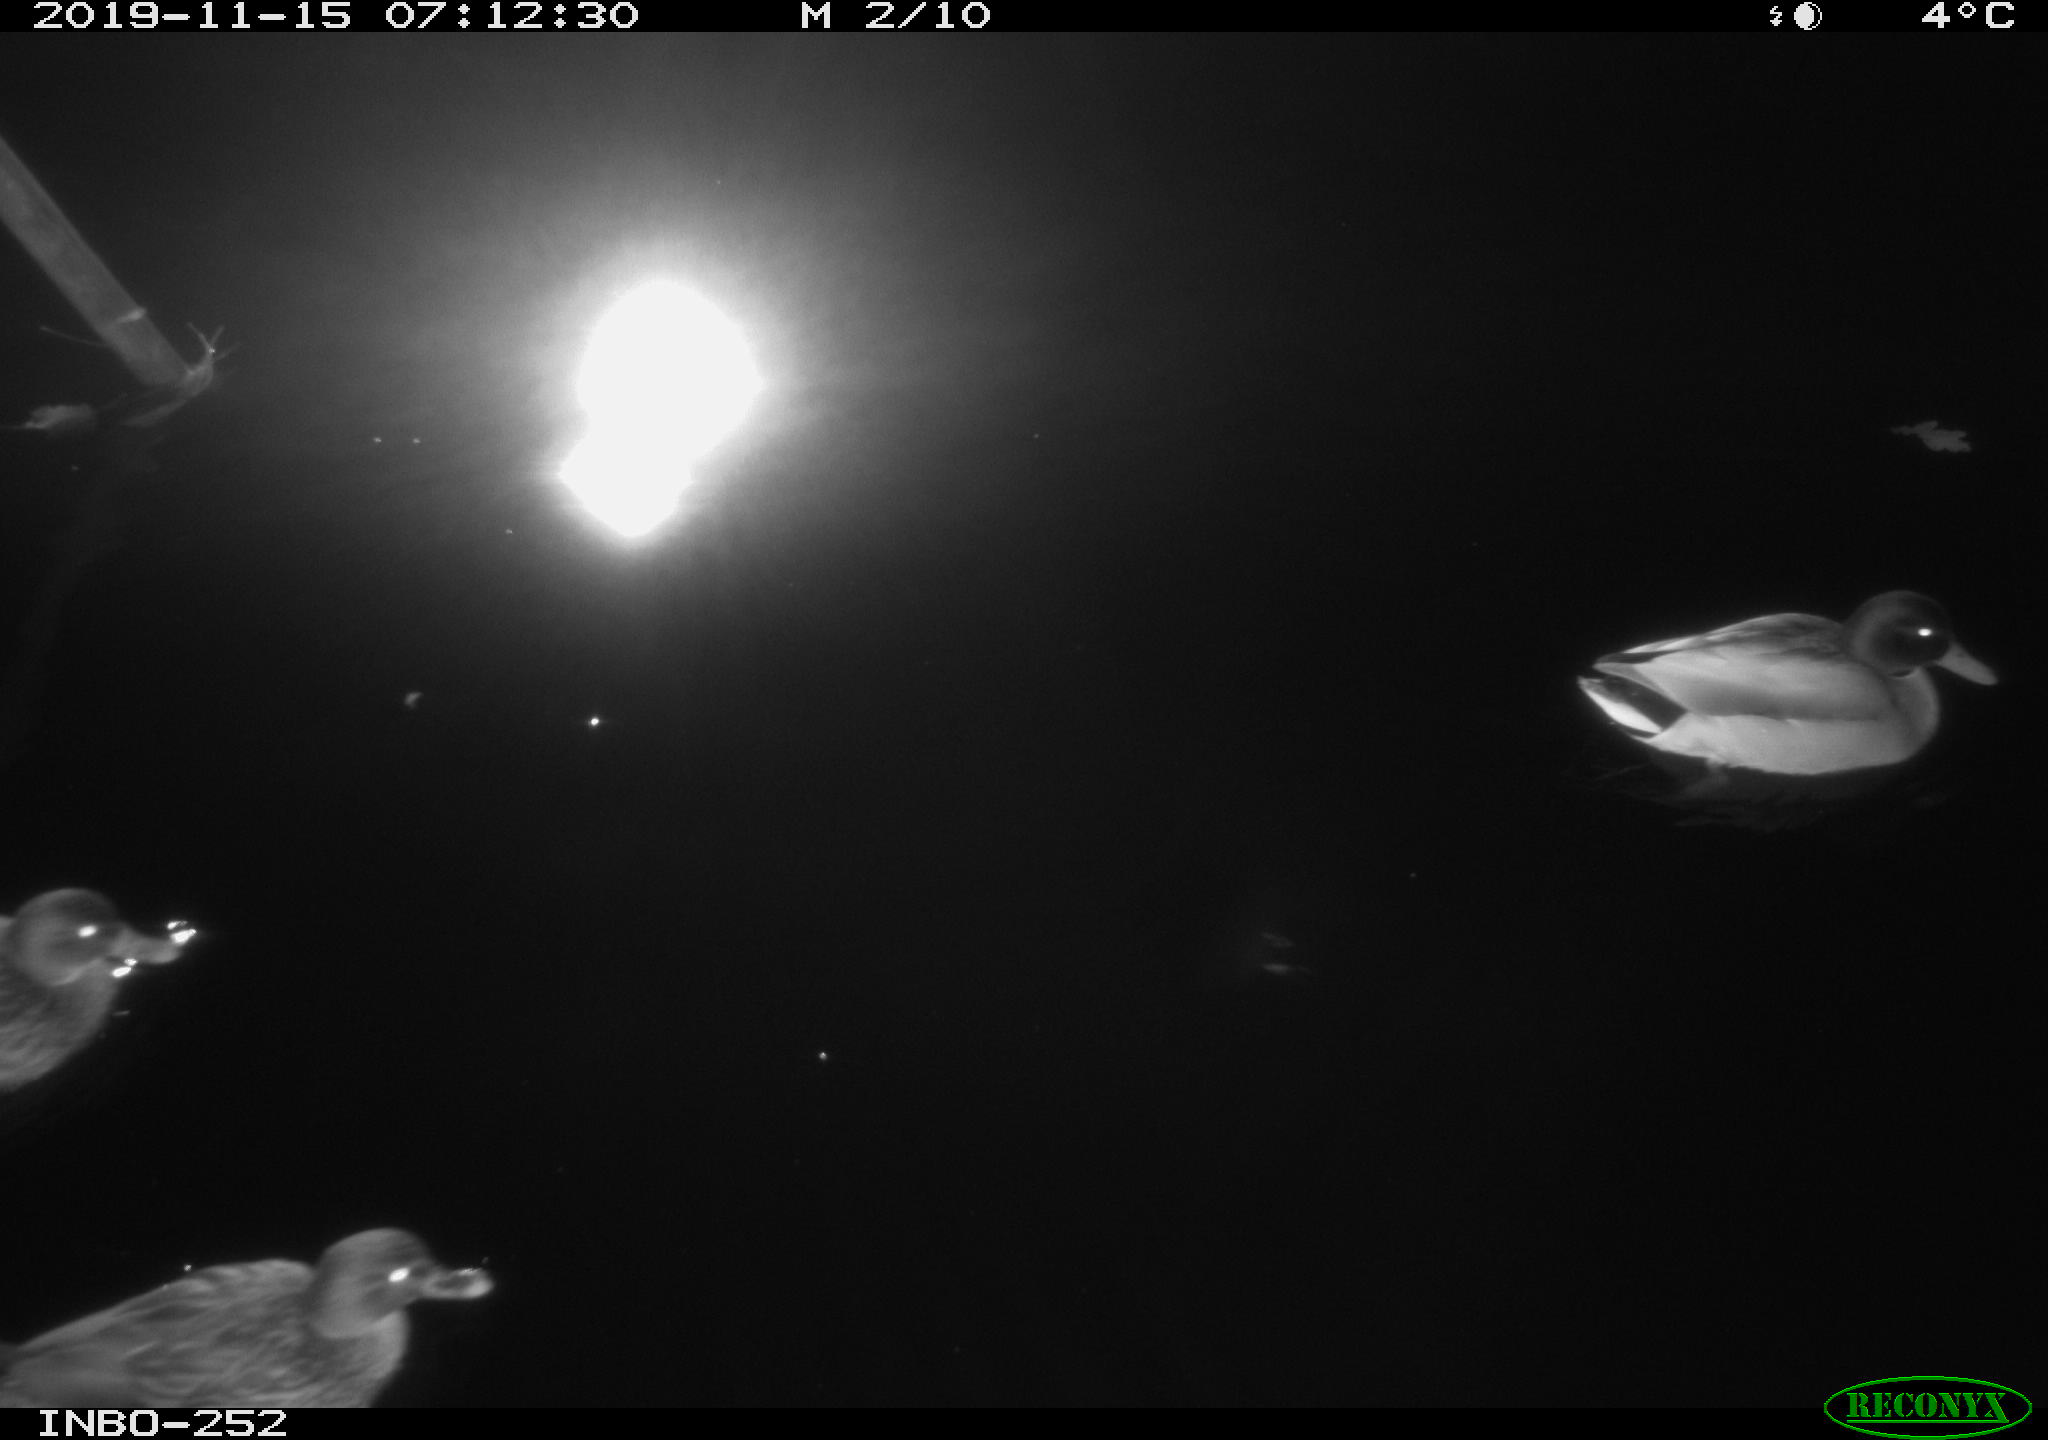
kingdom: Animalia
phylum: Chordata
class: Aves
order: Anseriformes
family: Anatidae
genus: Anas
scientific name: Anas platyrhynchos
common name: Mallard
